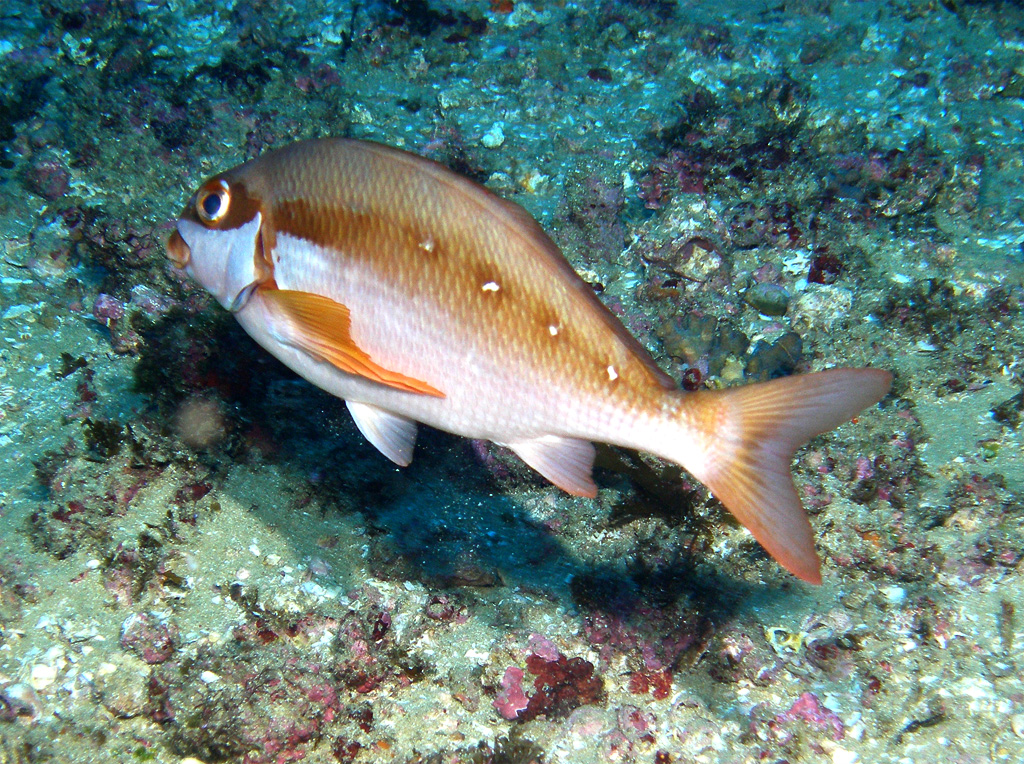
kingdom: Animalia
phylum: Chordata
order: Perciformes
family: Cheilodactylidae
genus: Chirodactylus
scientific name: Chirodactylus brachydactylus
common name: Butterfish
